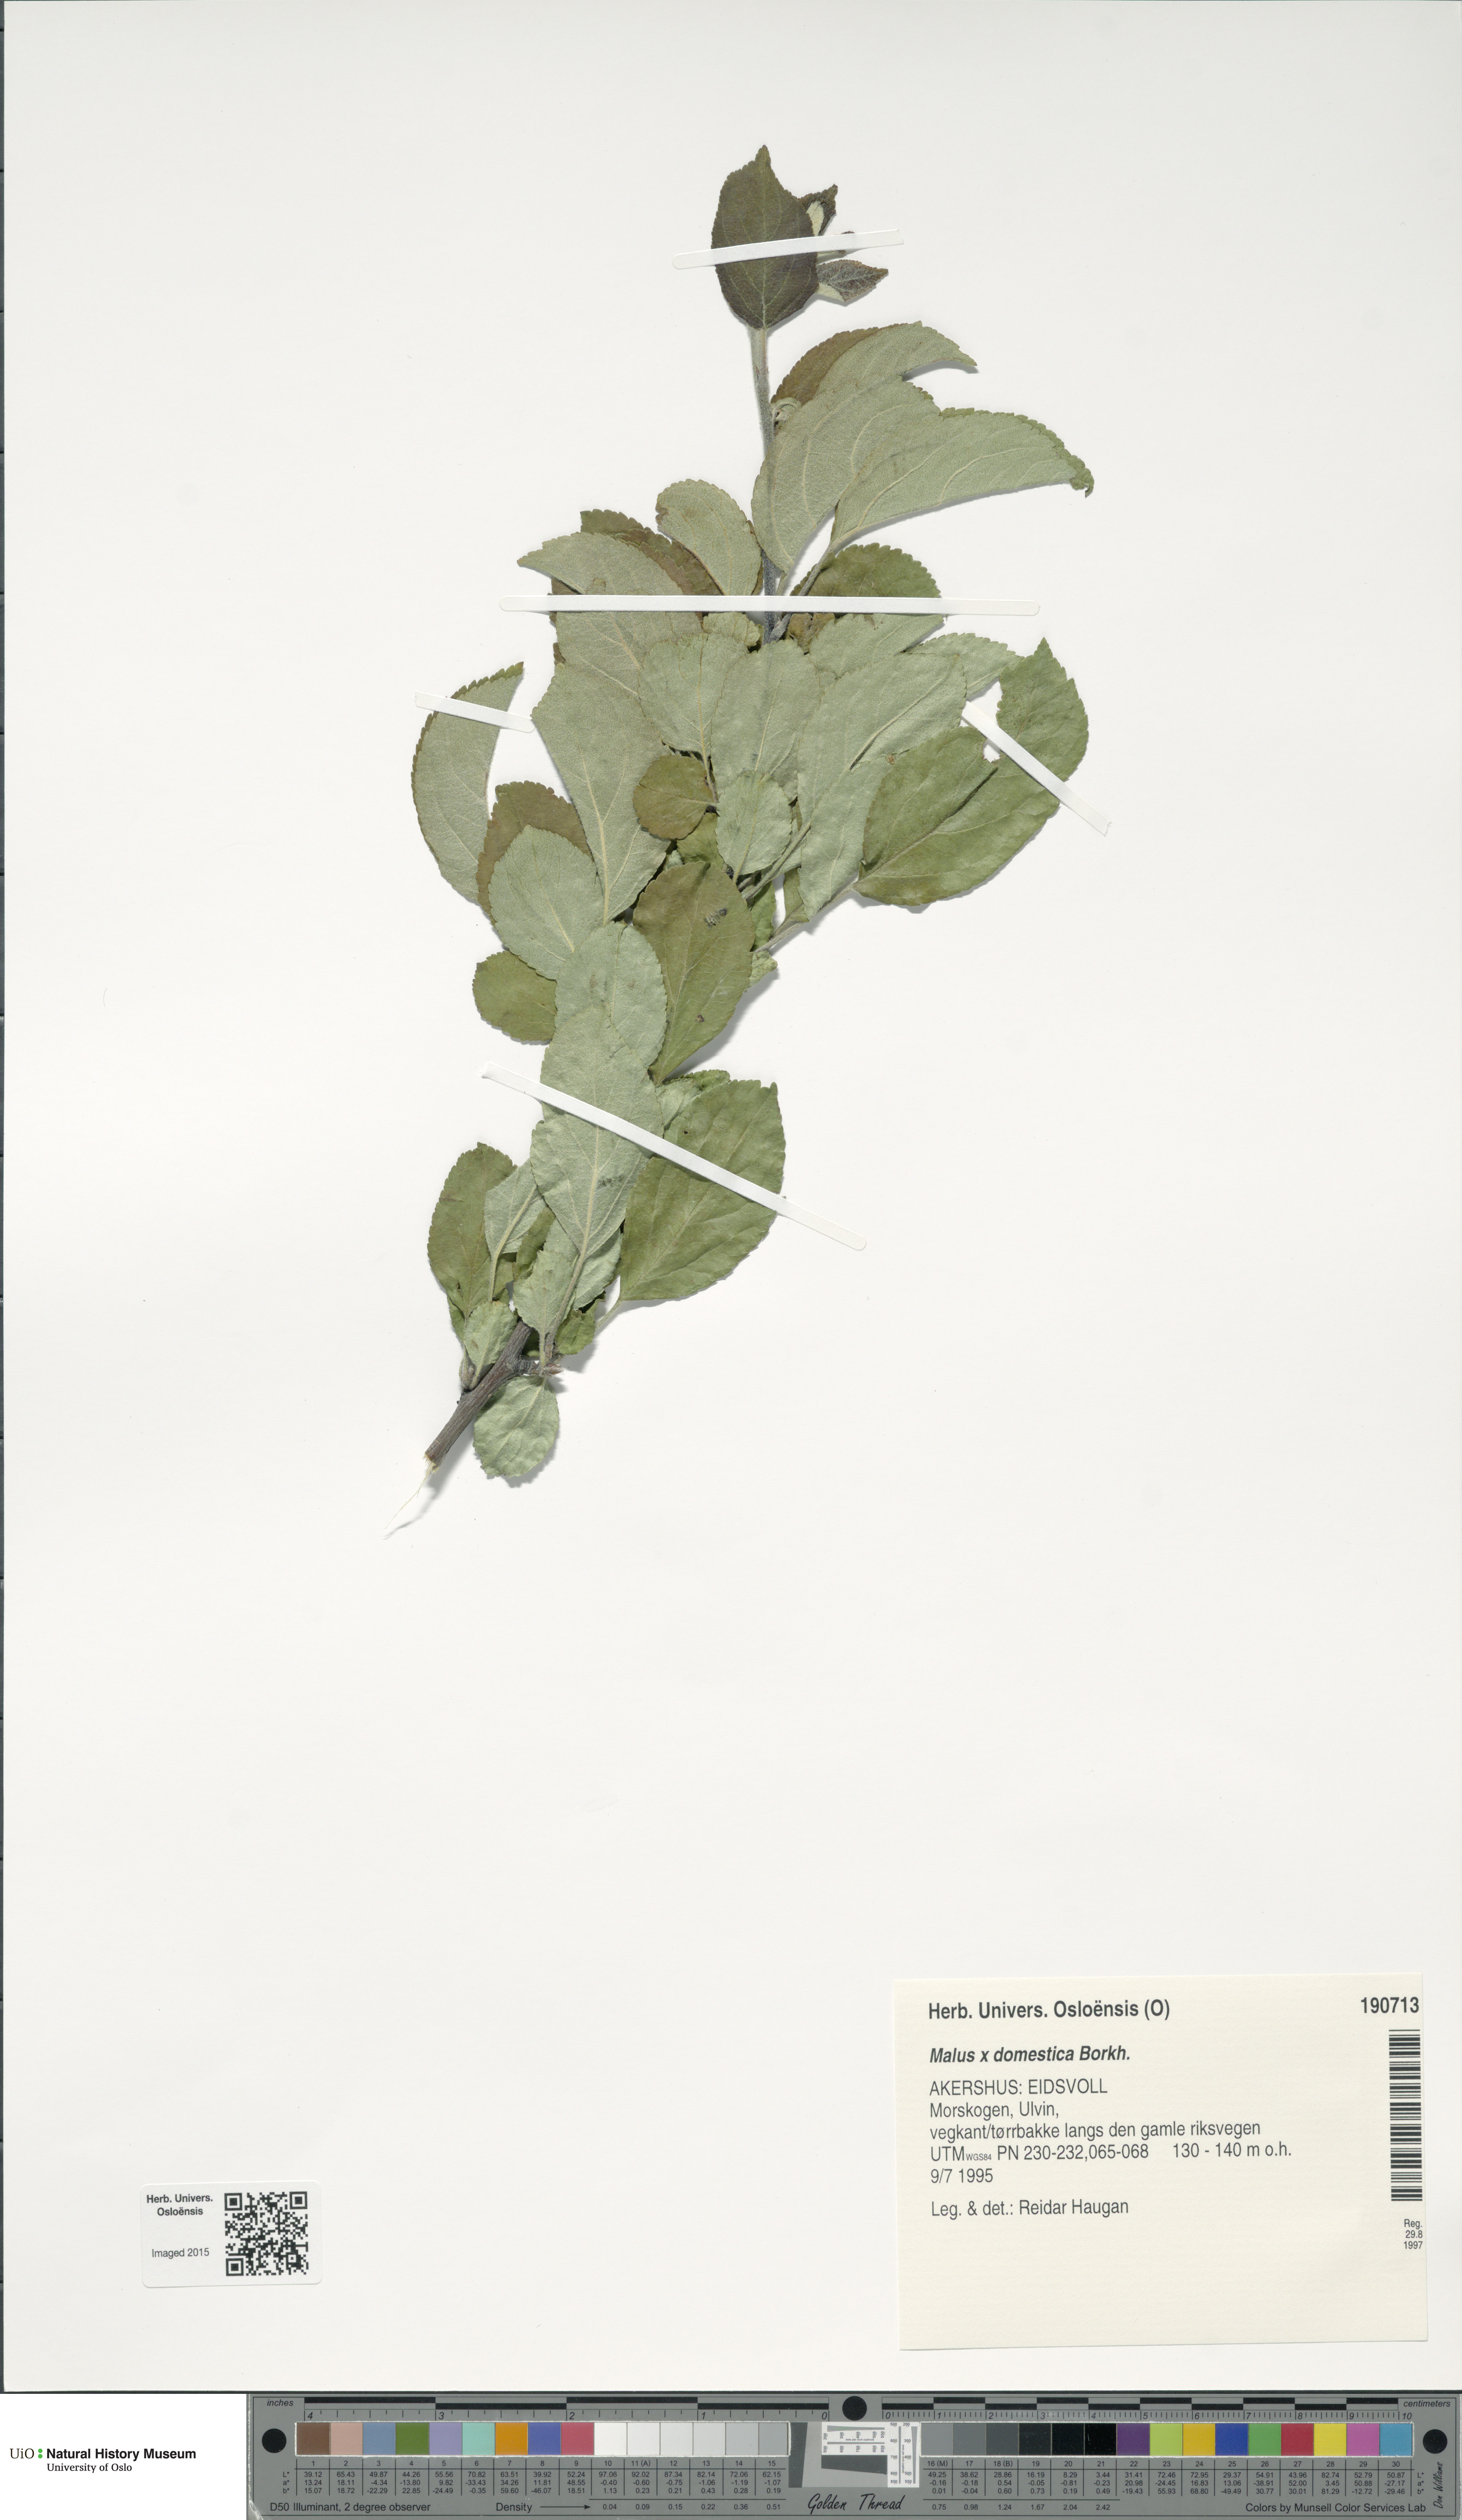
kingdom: Plantae
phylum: Tracheophyta
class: Magnoliopsida
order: Rosales
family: Rosaceae
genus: Malus
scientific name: Malus domestica
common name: Apple
